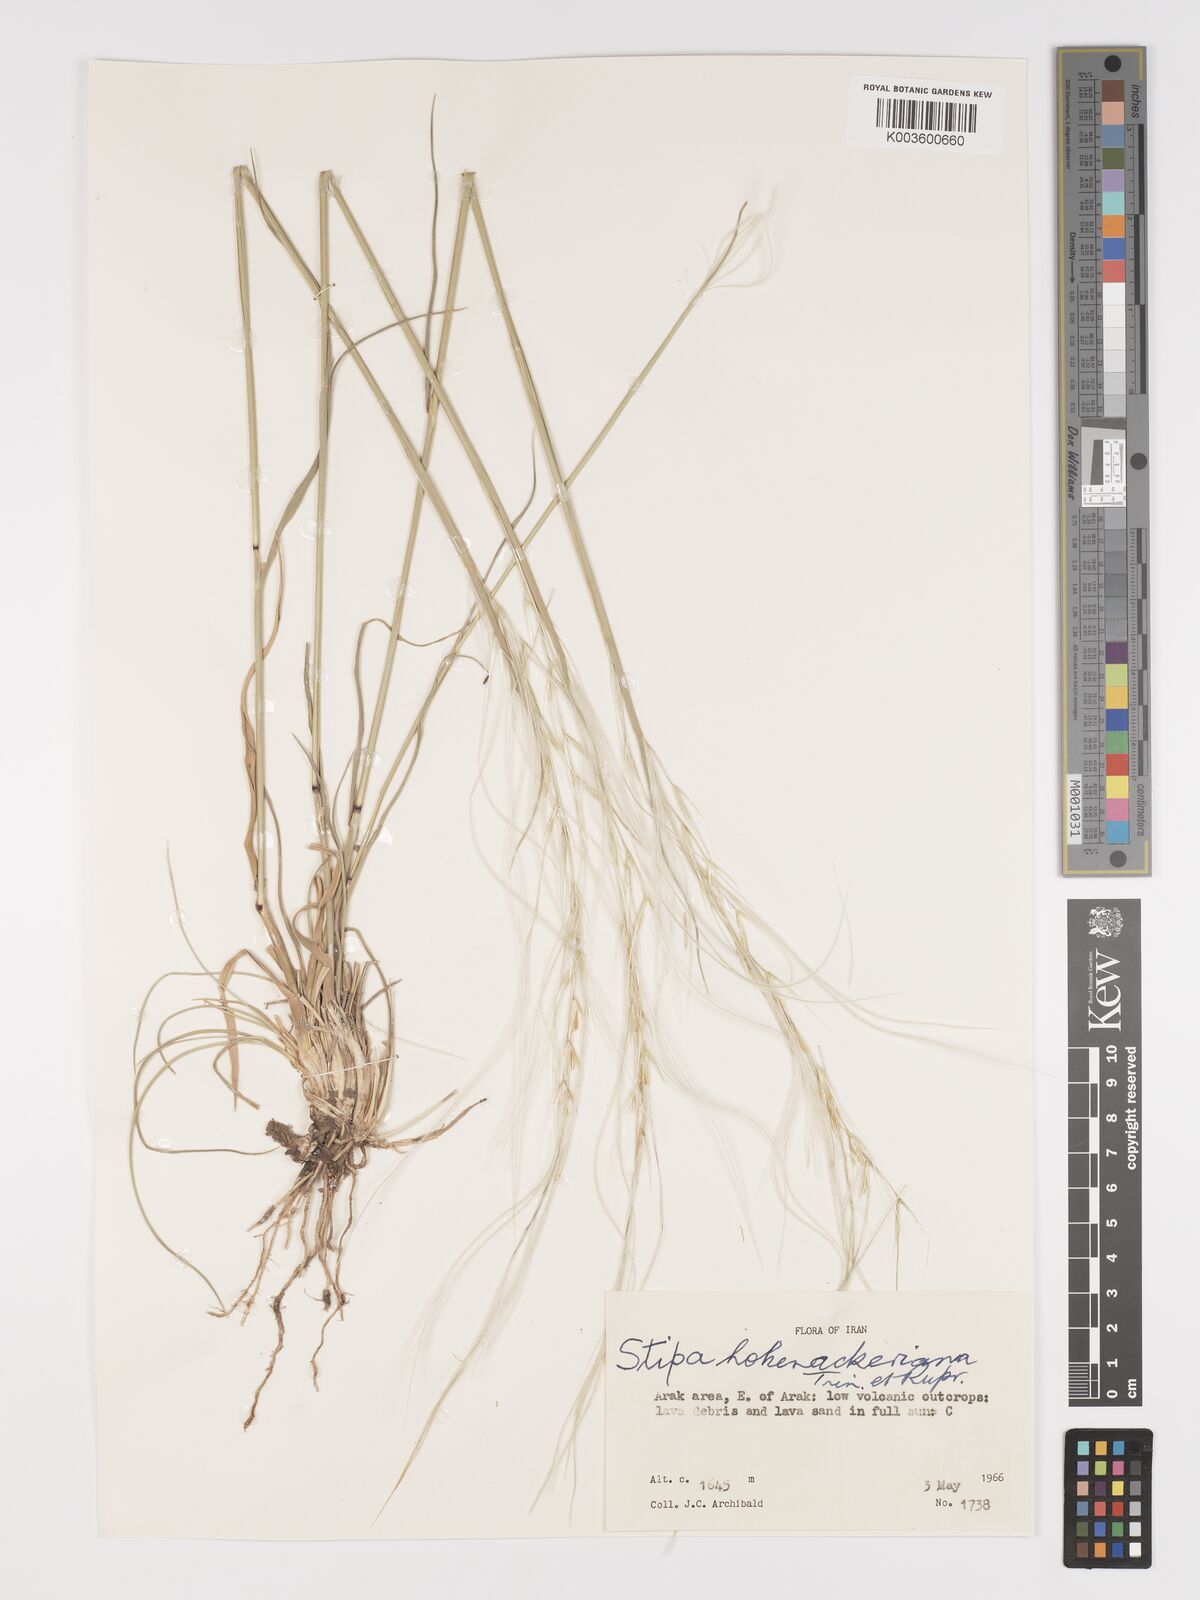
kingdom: Plantae
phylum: Tracheophyta
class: Liliopsida
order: Poales
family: Poaceae
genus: Stipa
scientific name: Stipa hohenackeriana
